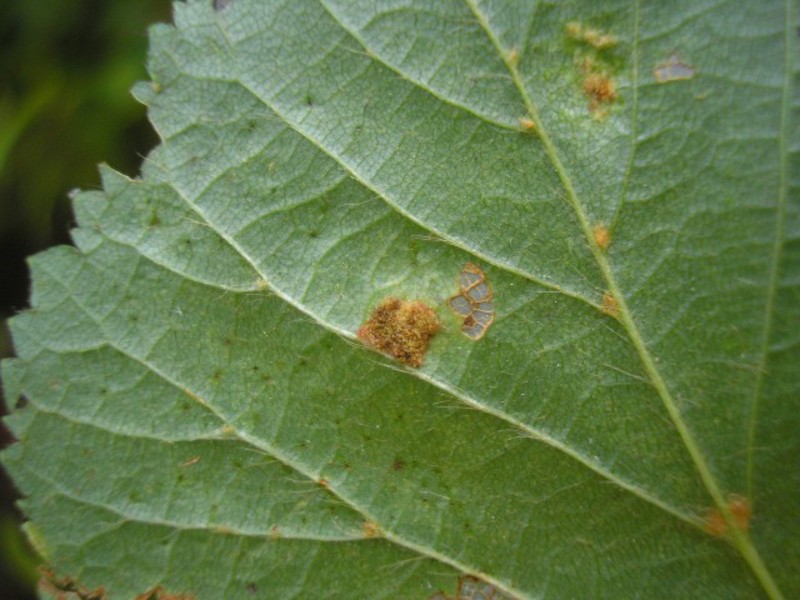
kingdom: Animalia
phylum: Arthropoda
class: Arachnida
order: Trombidiformes
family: Eriophyidae
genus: Eriophyes
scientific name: Eriophyes leiosoma
